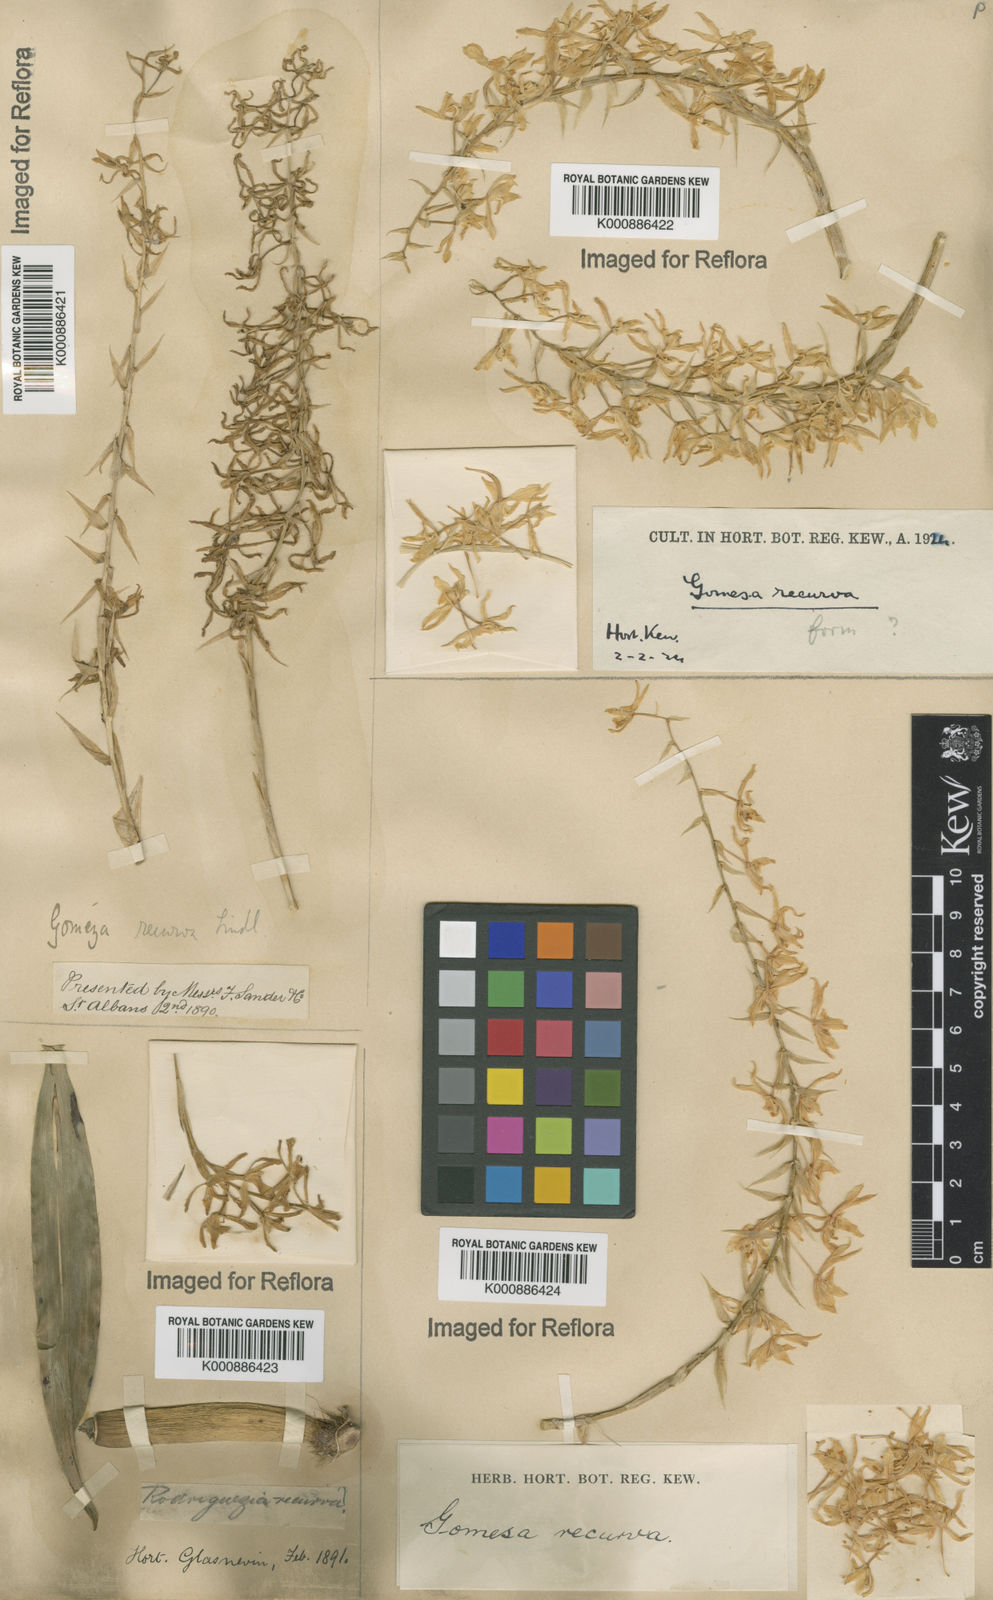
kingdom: Plantae
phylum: Tracheophyta
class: Liliopsida
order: Asparagales
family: Orchidaceae
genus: Gomesa
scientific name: Gomesa recurva
